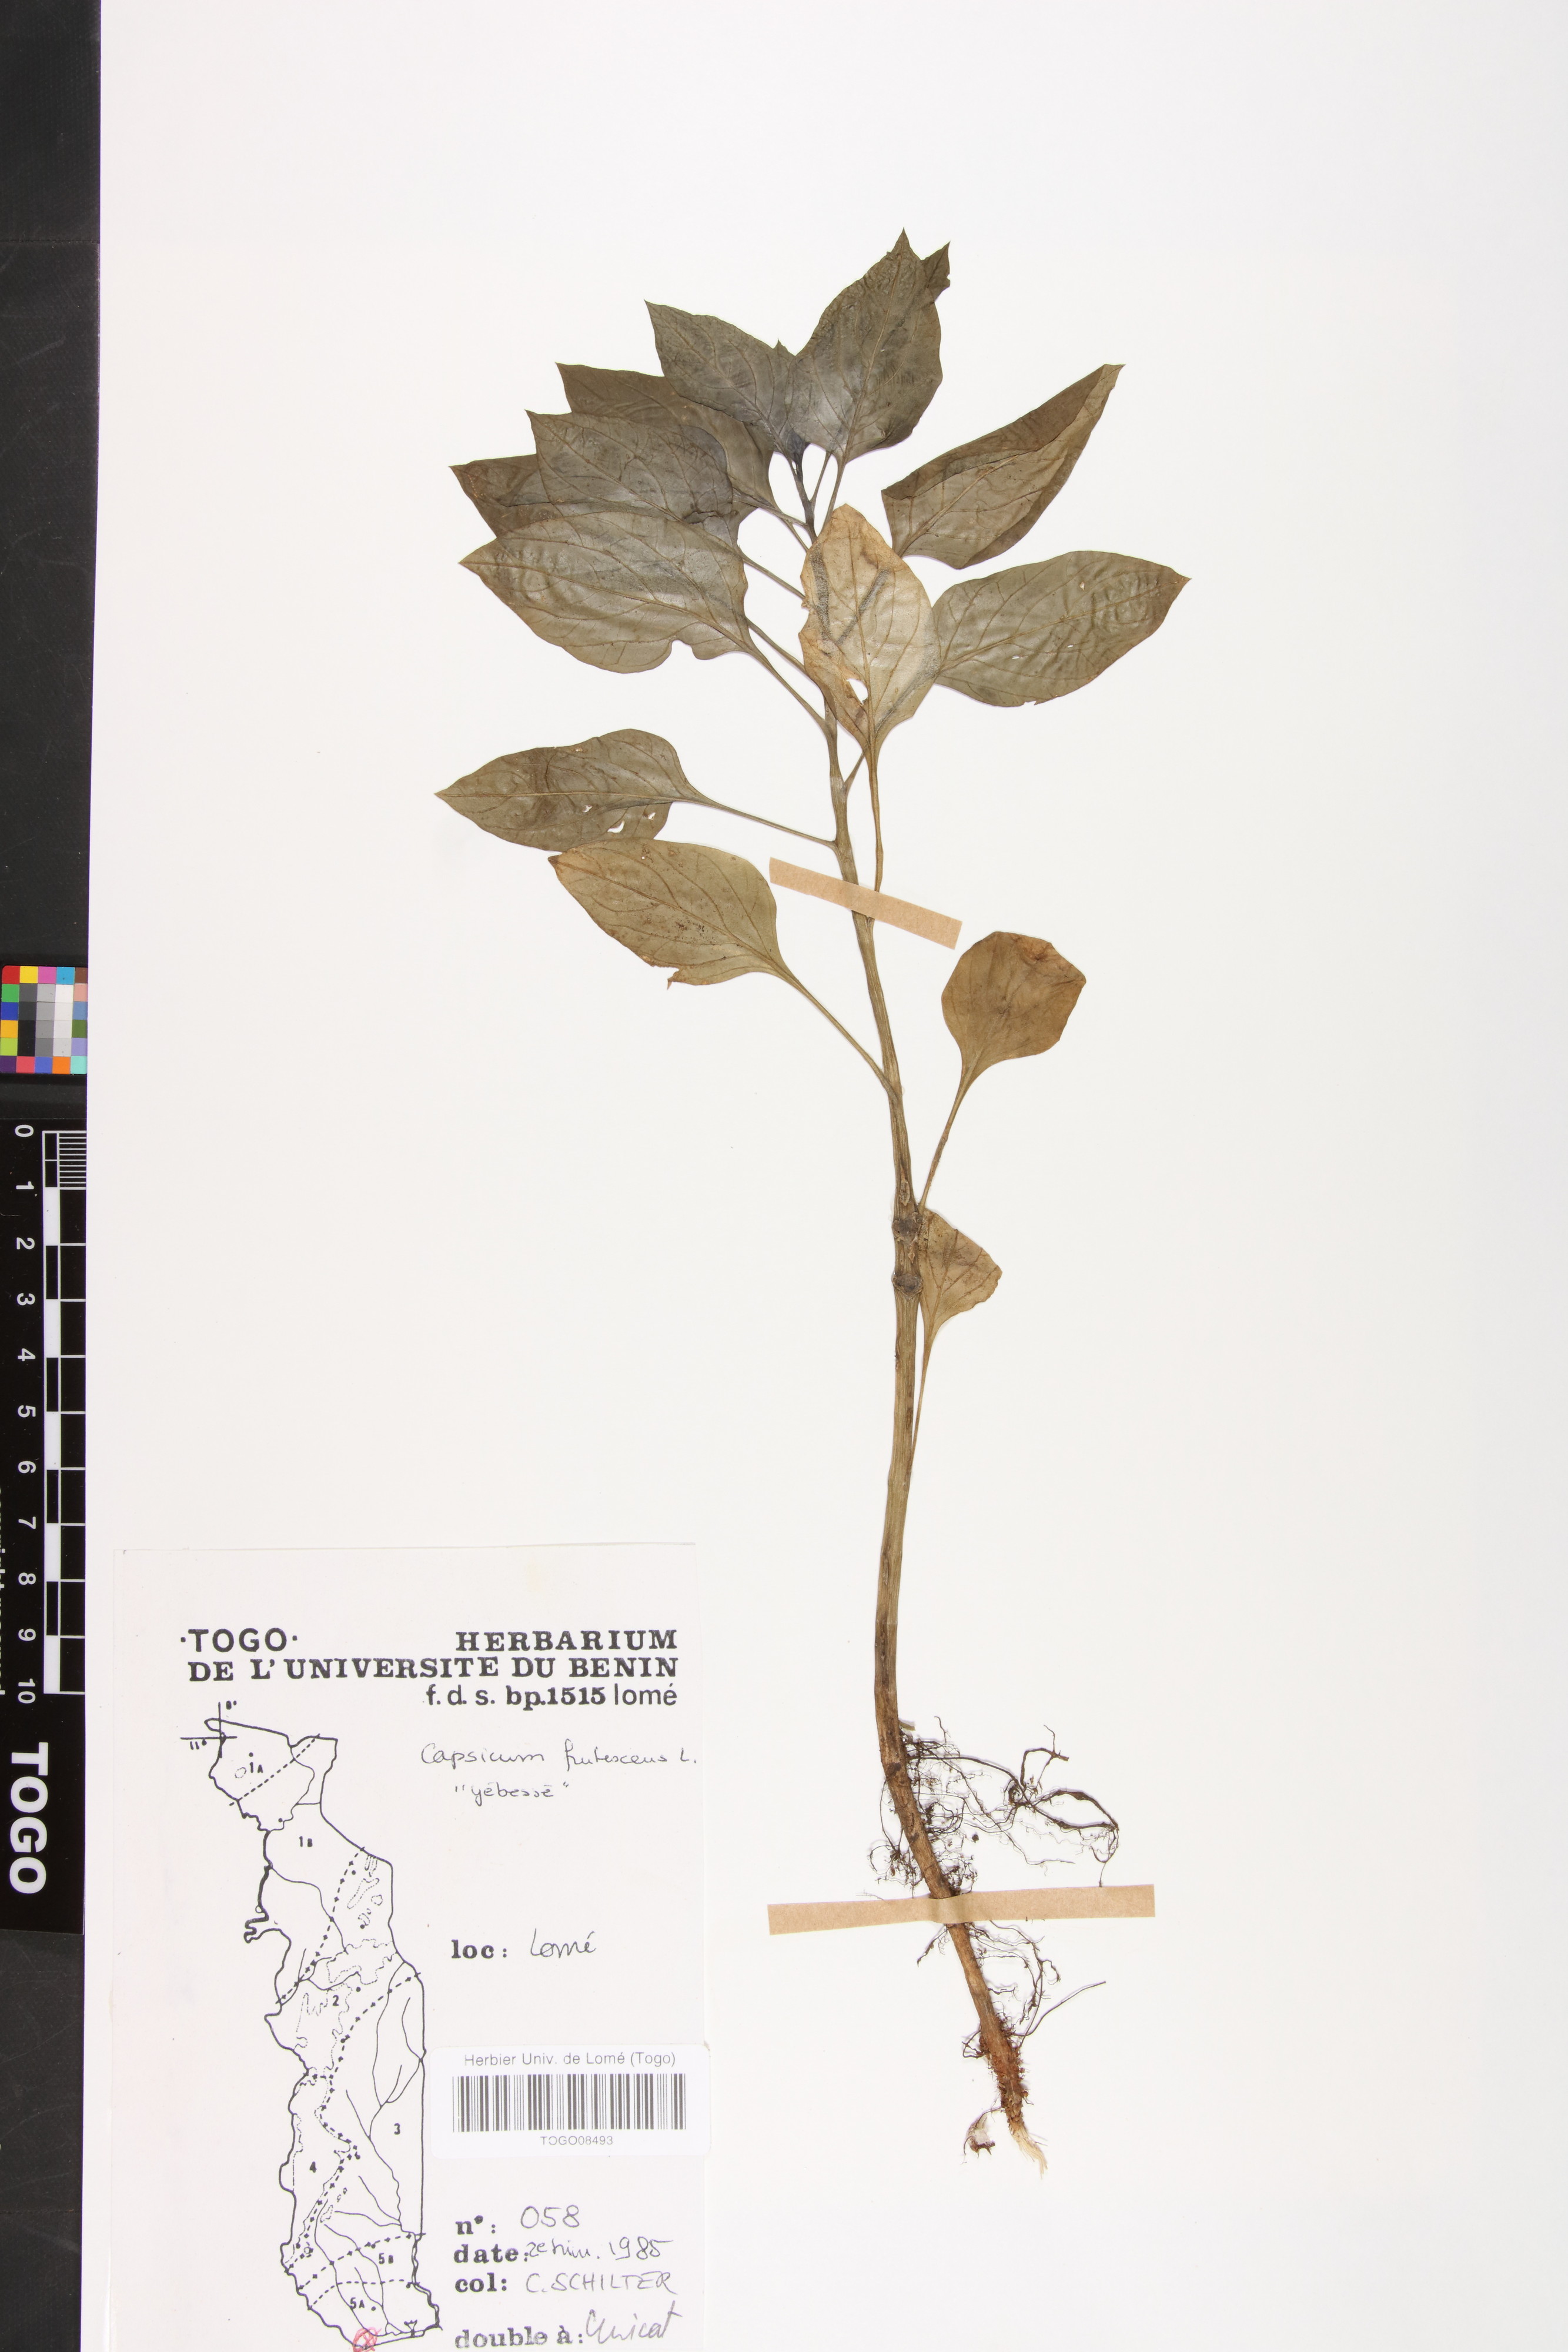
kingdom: Plantae
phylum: Tracheophyta
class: Magnoliopsida
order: Solanales
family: Solanaceae
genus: Capsicum
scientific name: Capsicum frutescens
